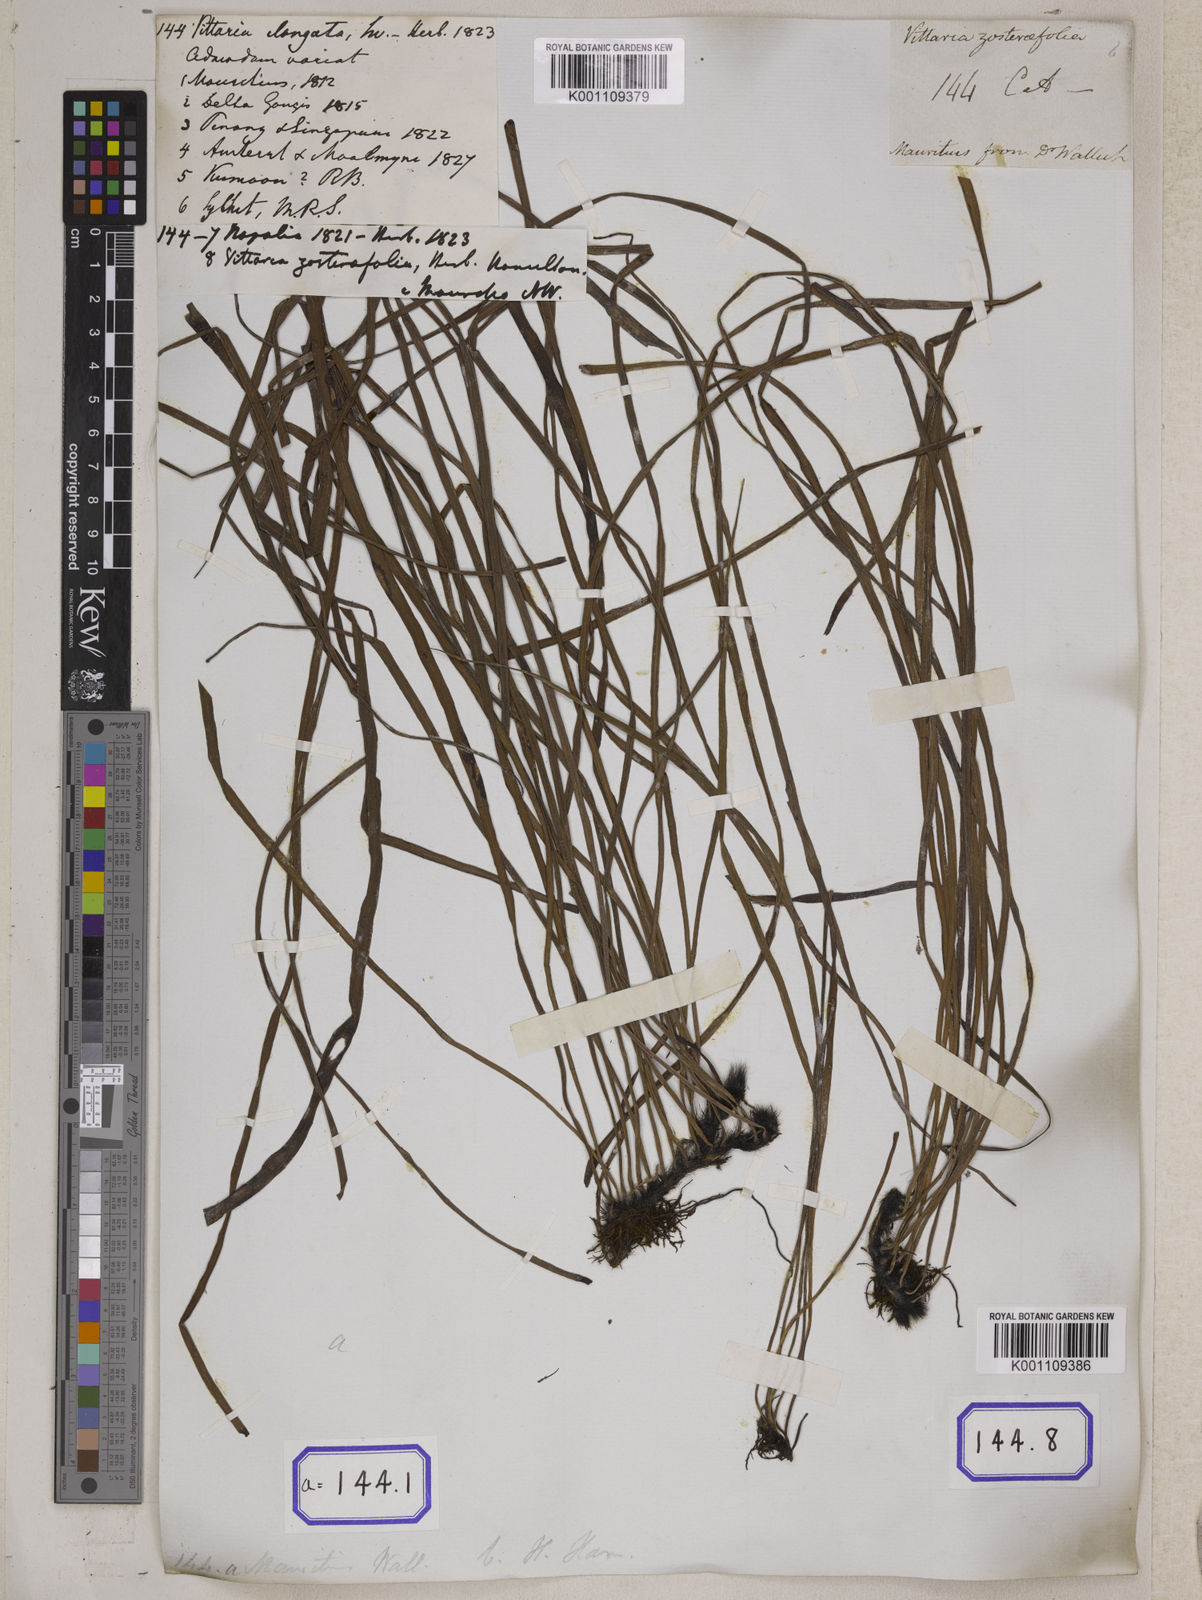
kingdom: Plantae
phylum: Tracheophyta
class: Polypodiopsida
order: Polypodiales
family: Pteridaceae
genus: Haplopteris
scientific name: Haplopteris elongata
